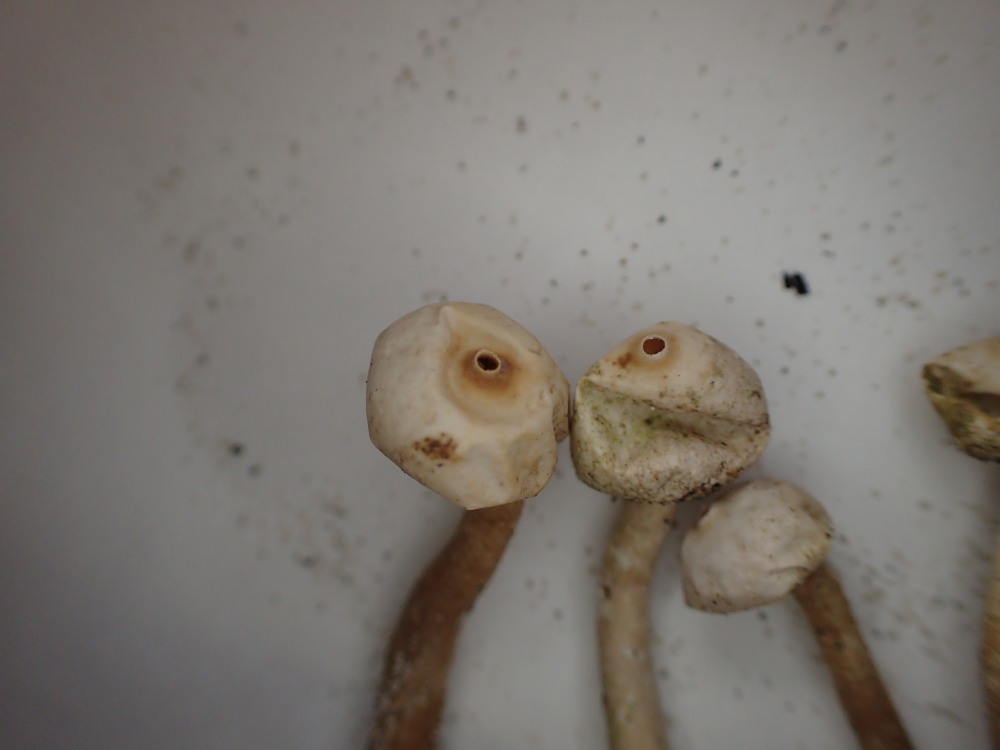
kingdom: Fungi
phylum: Basidiomycota
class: Agaricomycetes
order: Agaricales
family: Agaricaceae
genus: Tulostoma
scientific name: Tulostoma brumale
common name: vinter-stilkbovist
